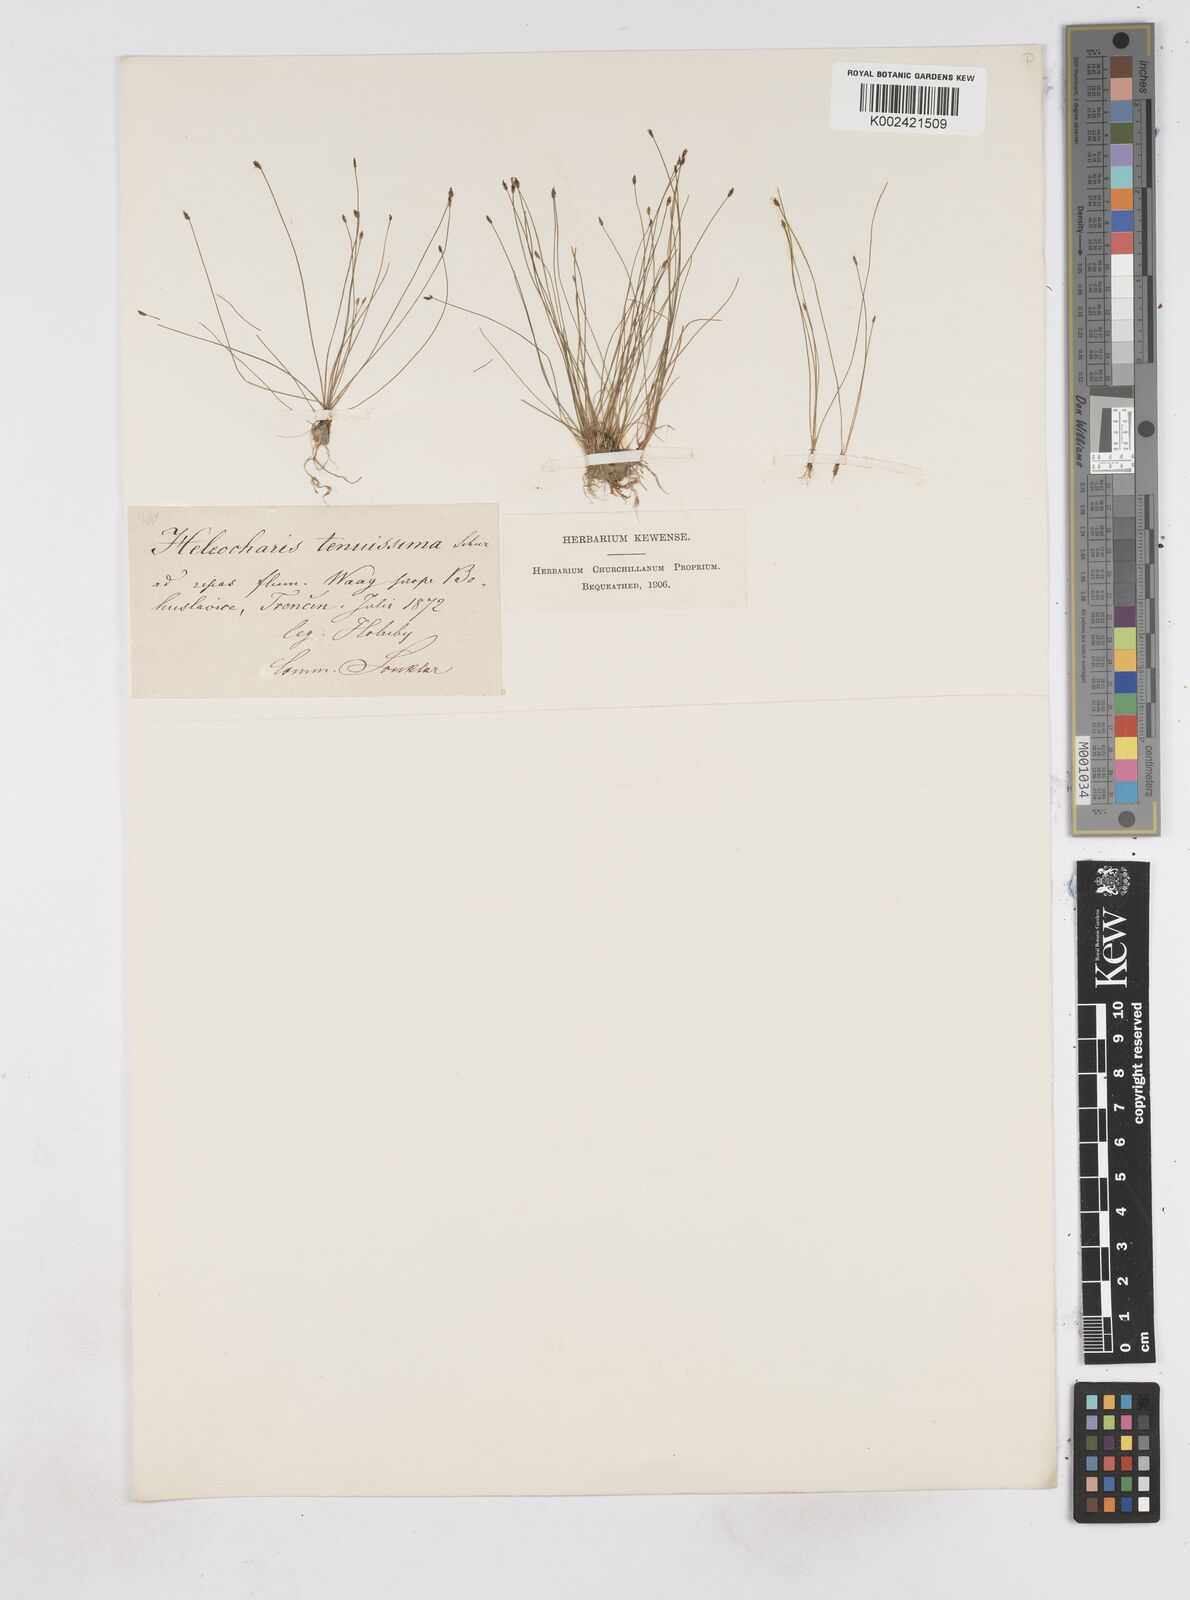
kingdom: Plantae
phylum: Tracheophyta
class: Liliopsida
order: Poales
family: Cyperaceae
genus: Eleocharis
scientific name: Eleocharis minima
